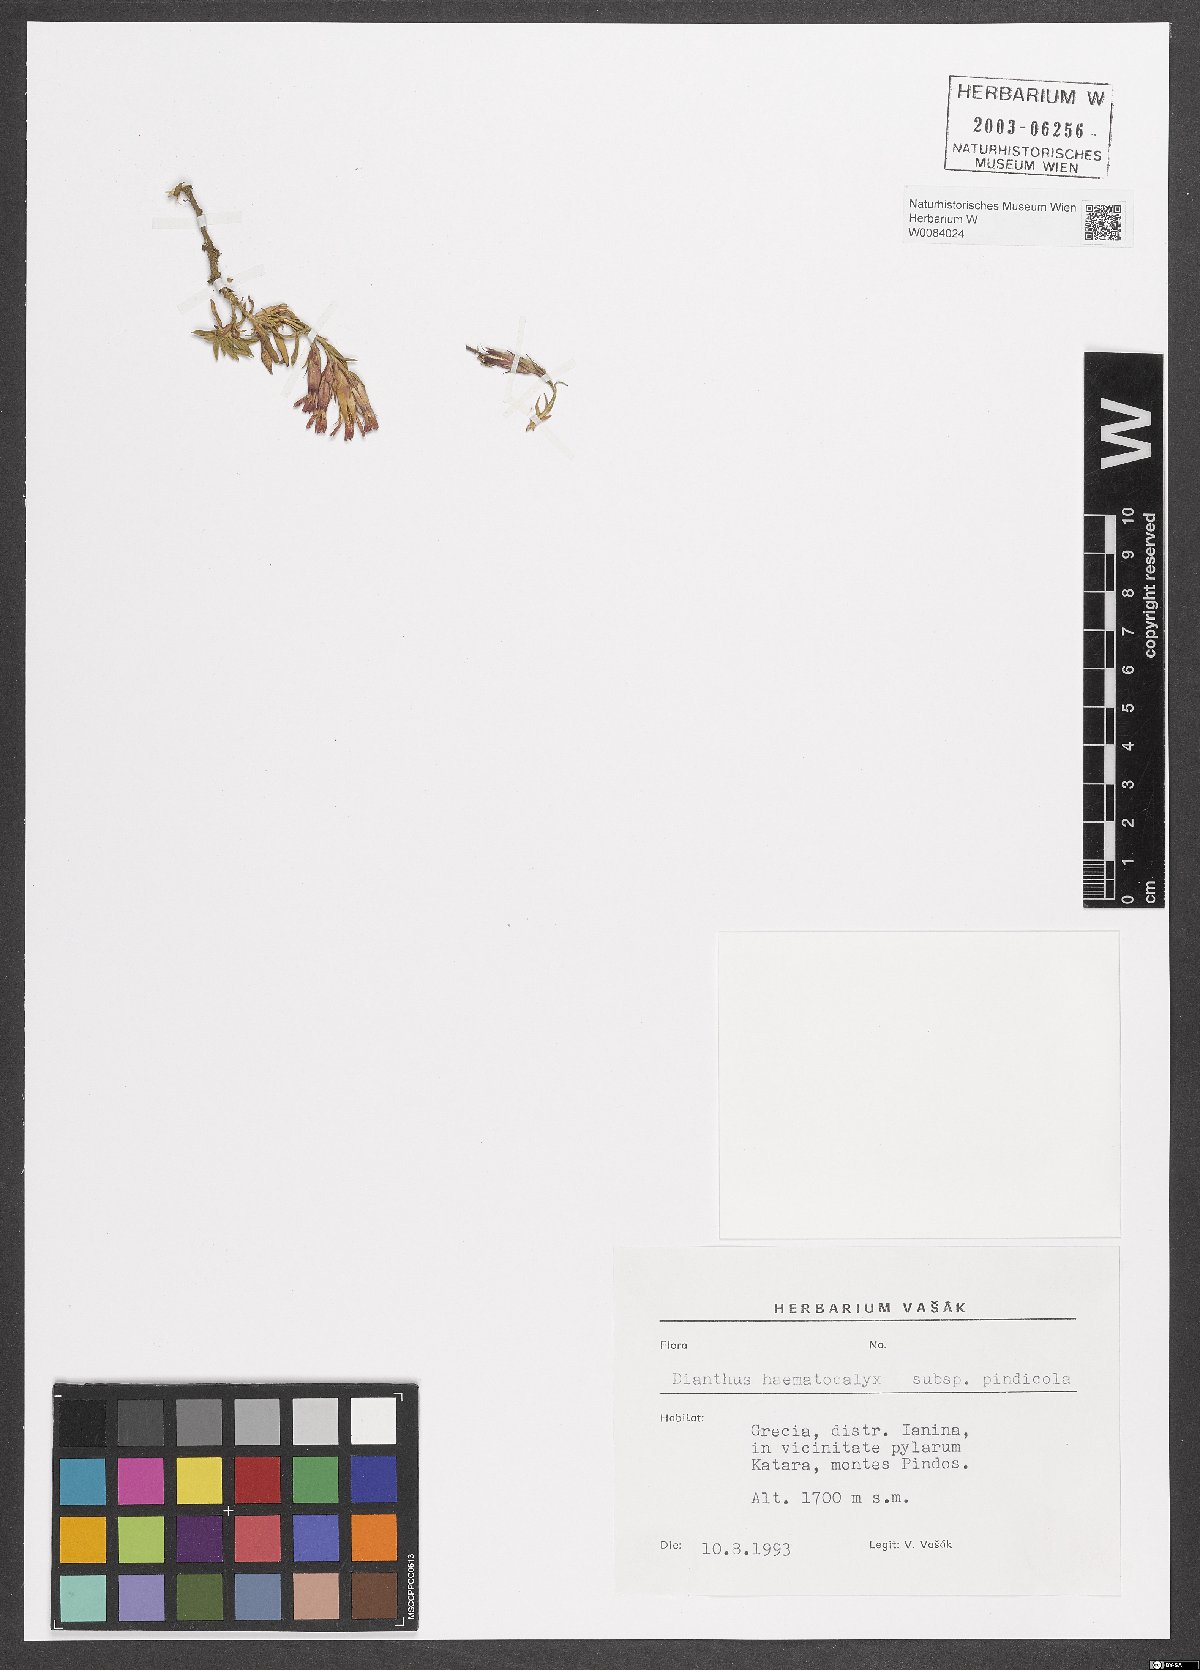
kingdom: Plantae
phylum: Tracheophyta
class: Magnoliopsida
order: Caryophyllales
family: Caryophyllaceae
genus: Dianthus
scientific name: Dianthus haematocalyx
